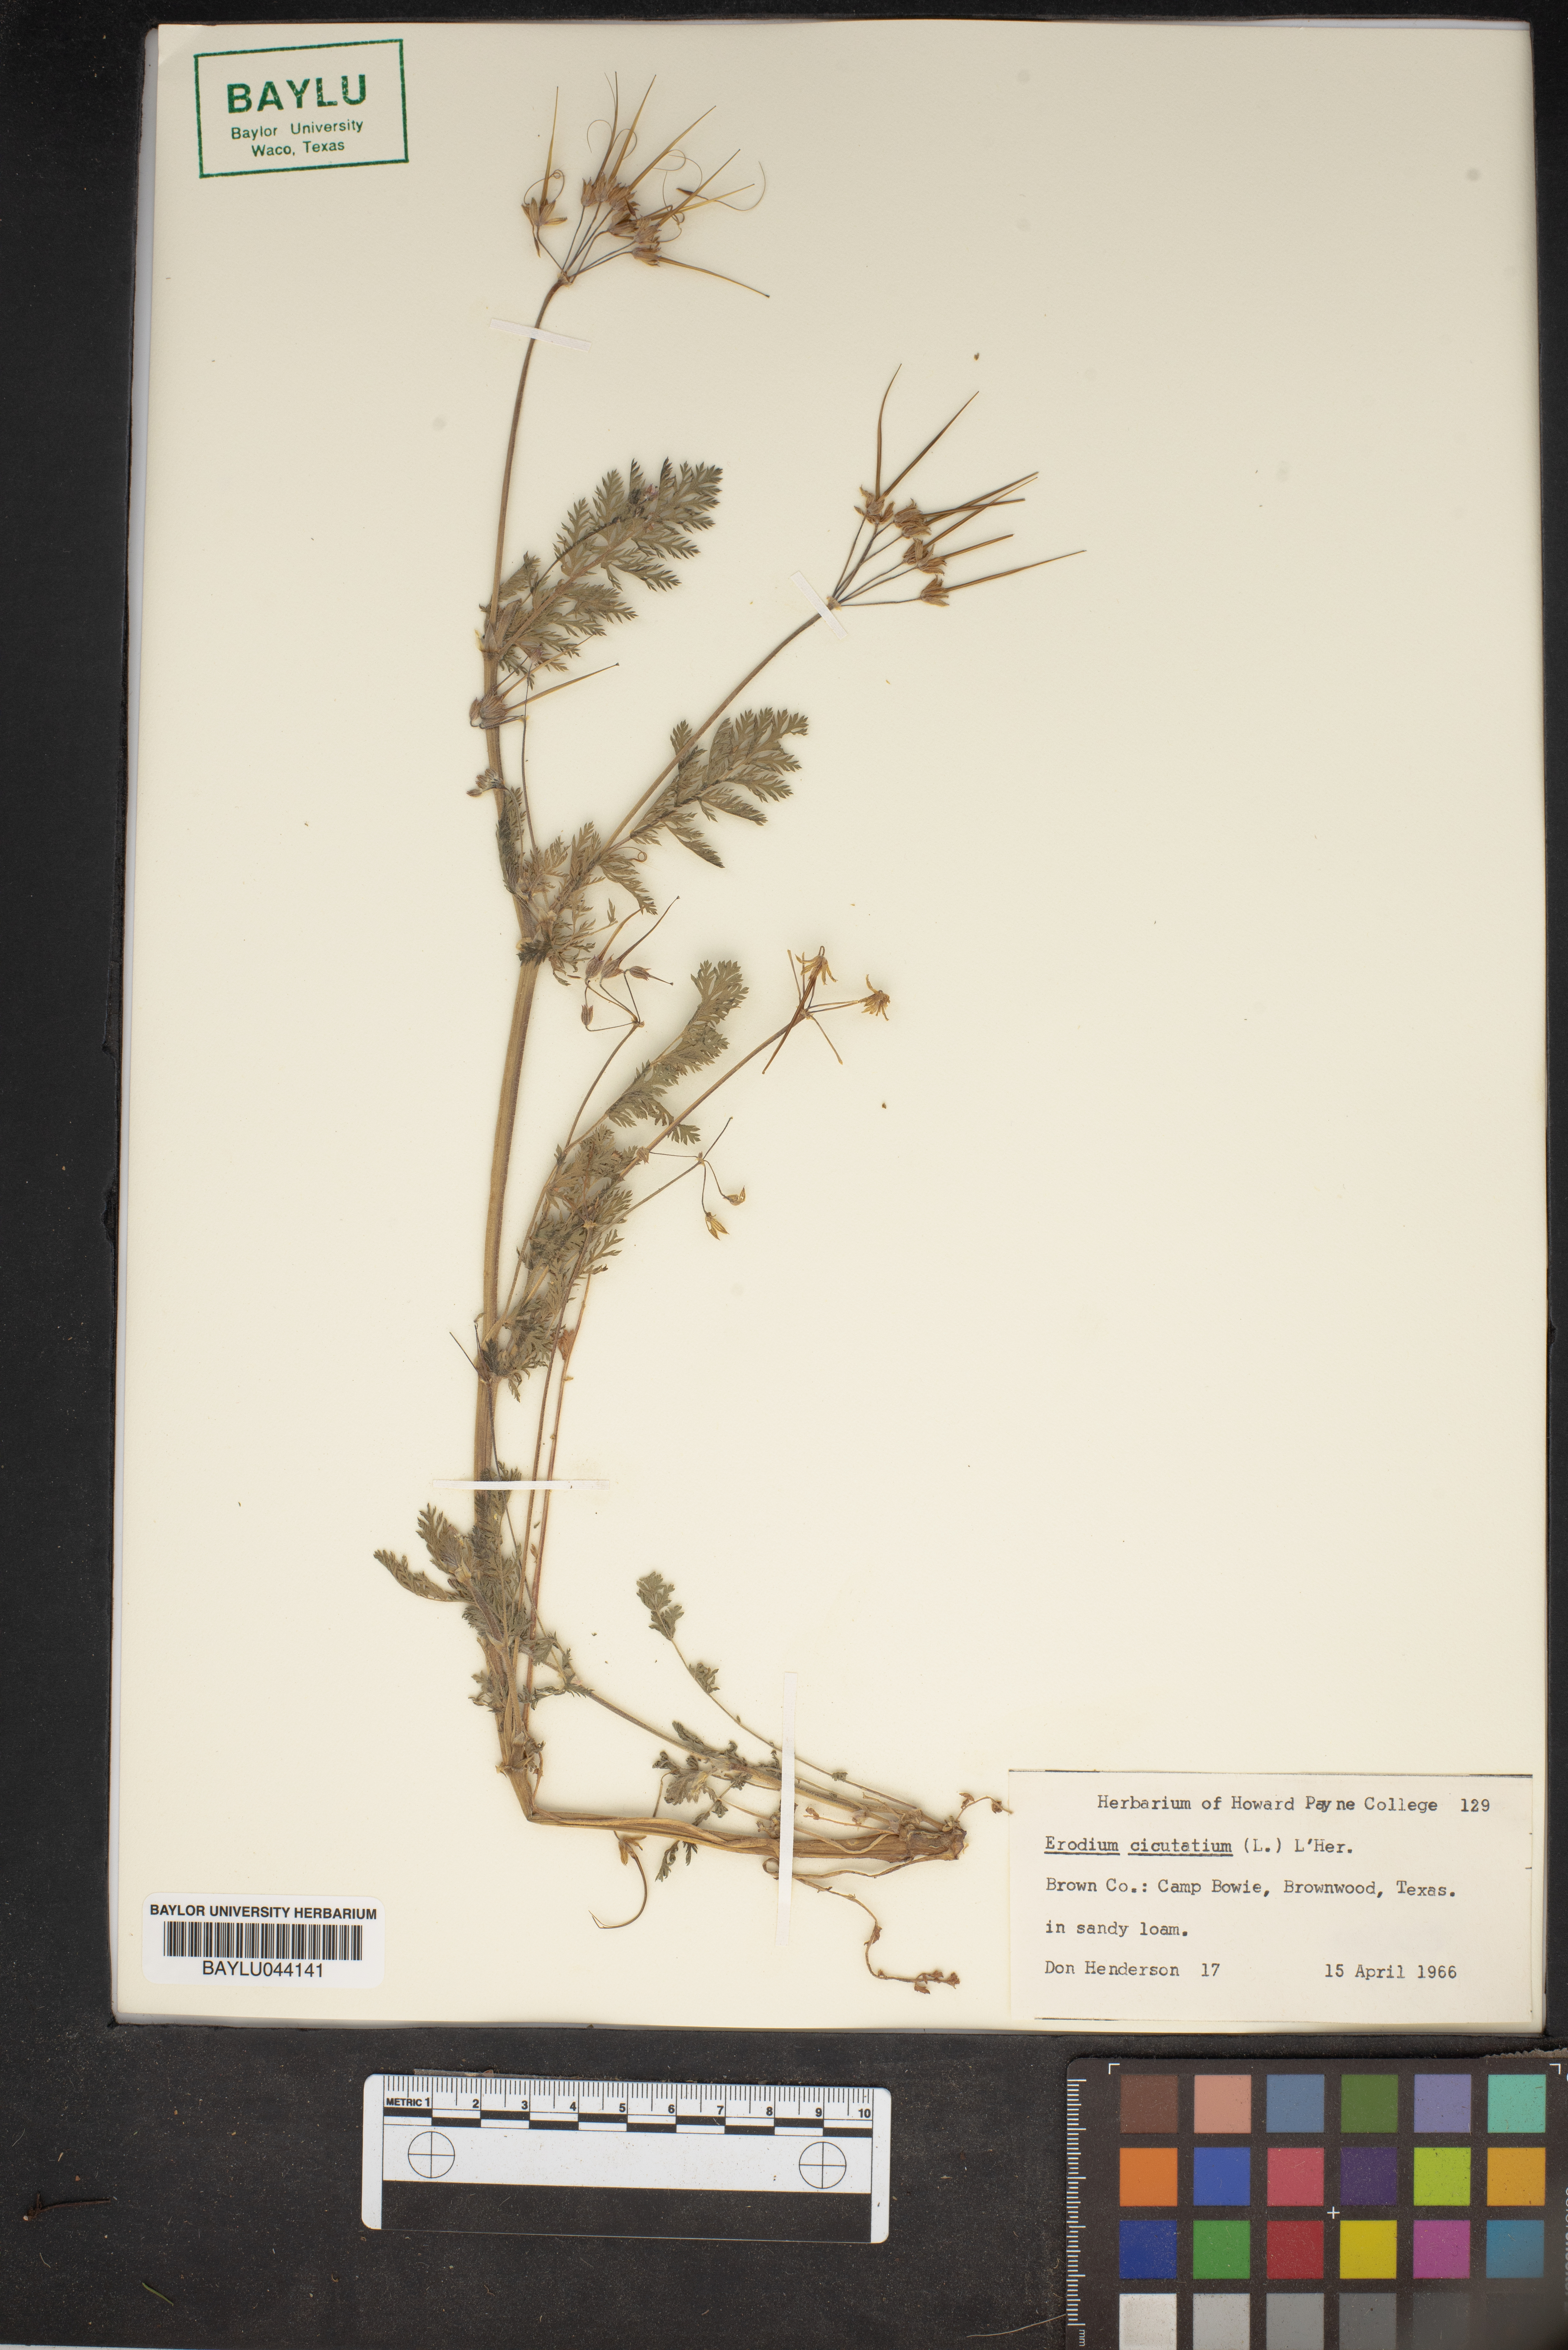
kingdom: Plantae
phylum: Tracheophyta
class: Magnoliopsida
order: Geraniales
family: Geraniaceae
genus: Erodium
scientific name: Erodium cicutarium
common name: Common stork's-bill
